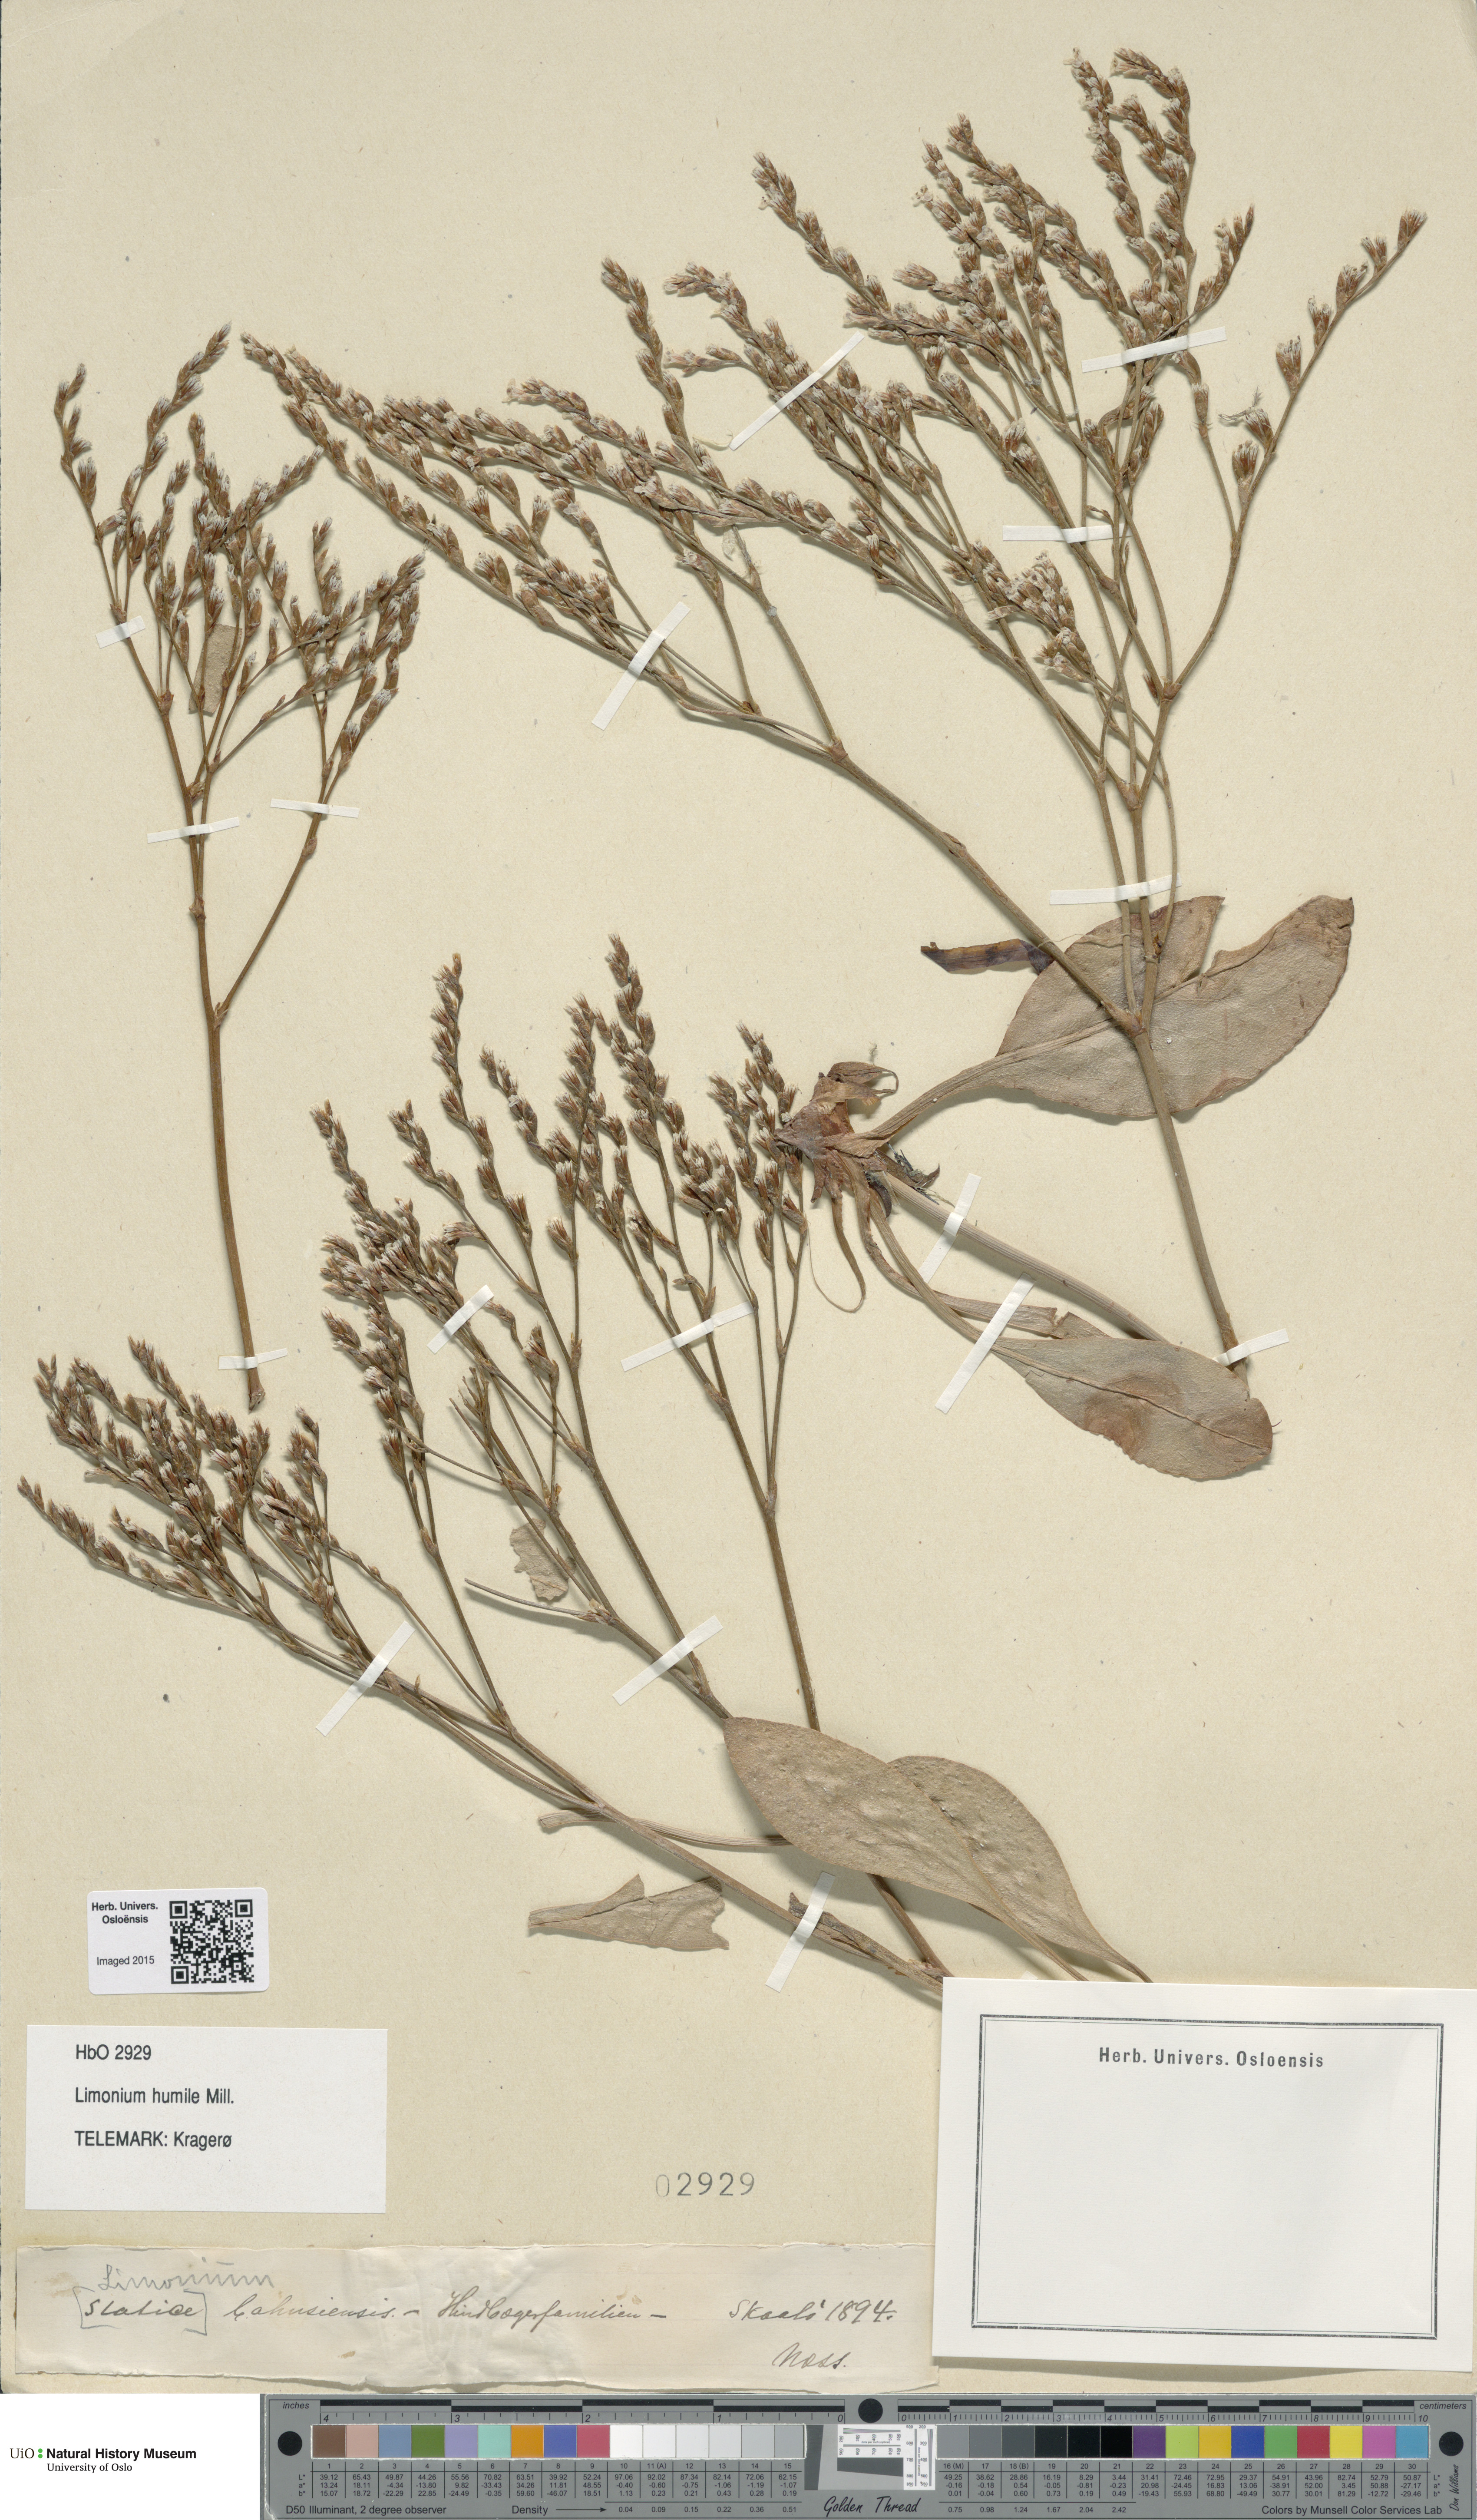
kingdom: Plantae
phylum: Tracheophyta
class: Magnoliopsida
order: Caryophyllales
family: Plumbaginaceae
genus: Limonium
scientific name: Limonium humile
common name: Lax-flowered sea-lavender
